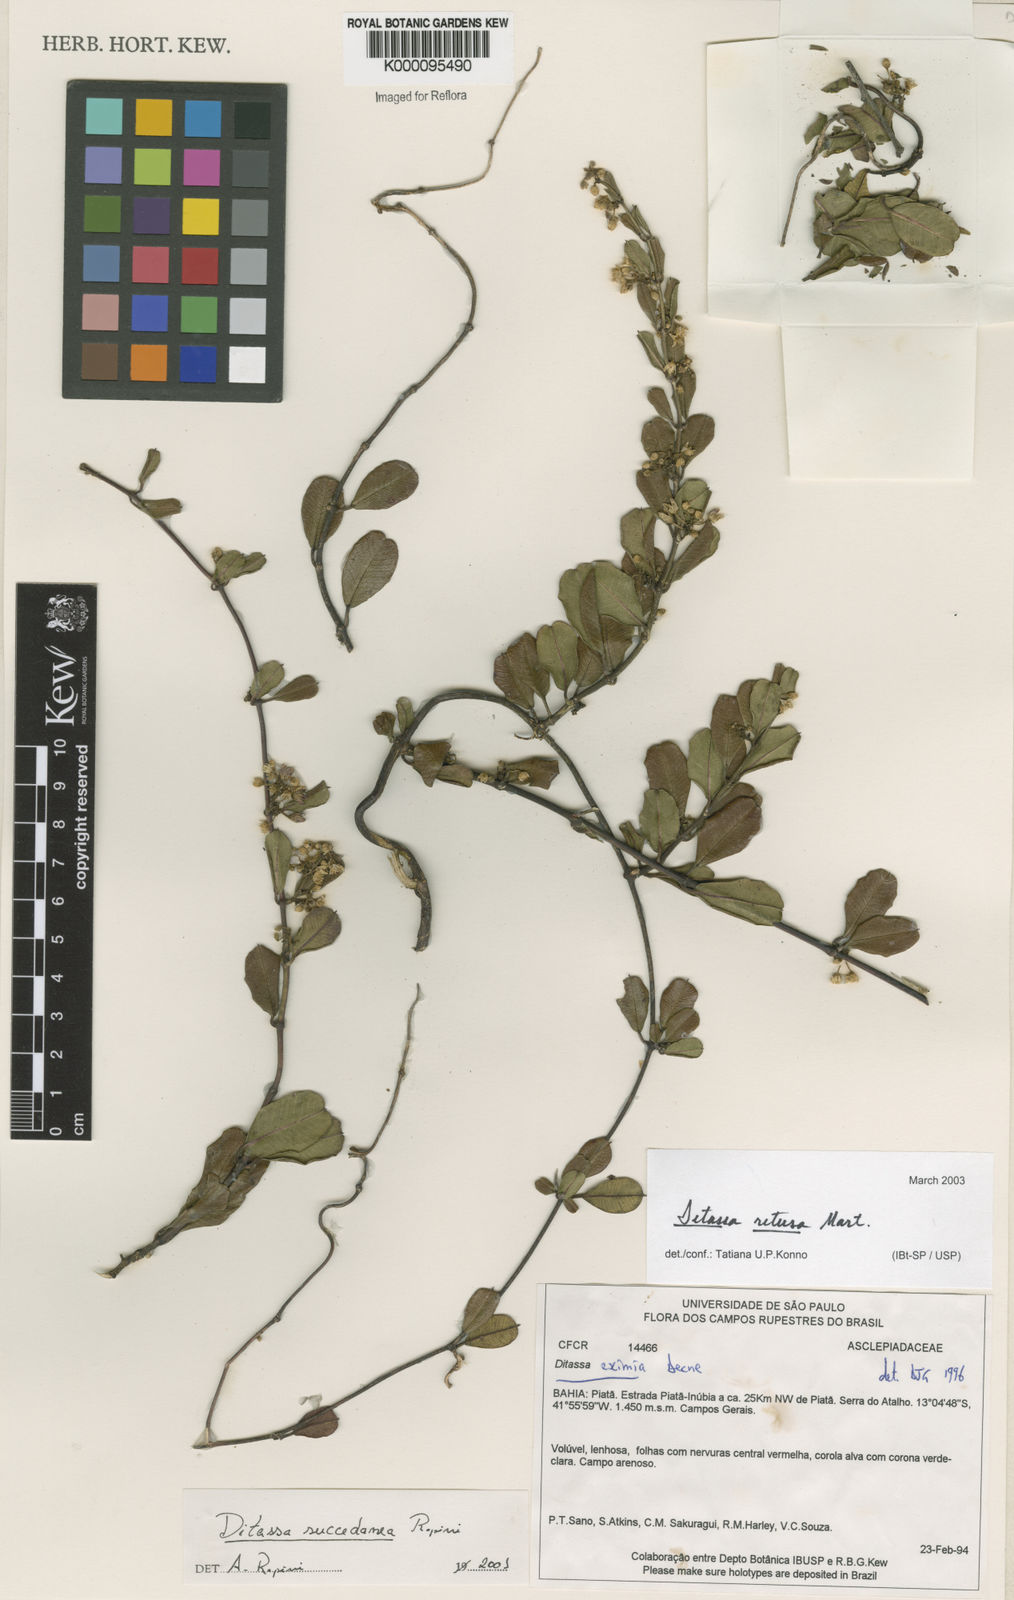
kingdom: Plantae
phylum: Tracheophyta
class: Magnoliopsida
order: Gentianales
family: Apocynaceae
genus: Ditassa
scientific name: Ditassa retusa
